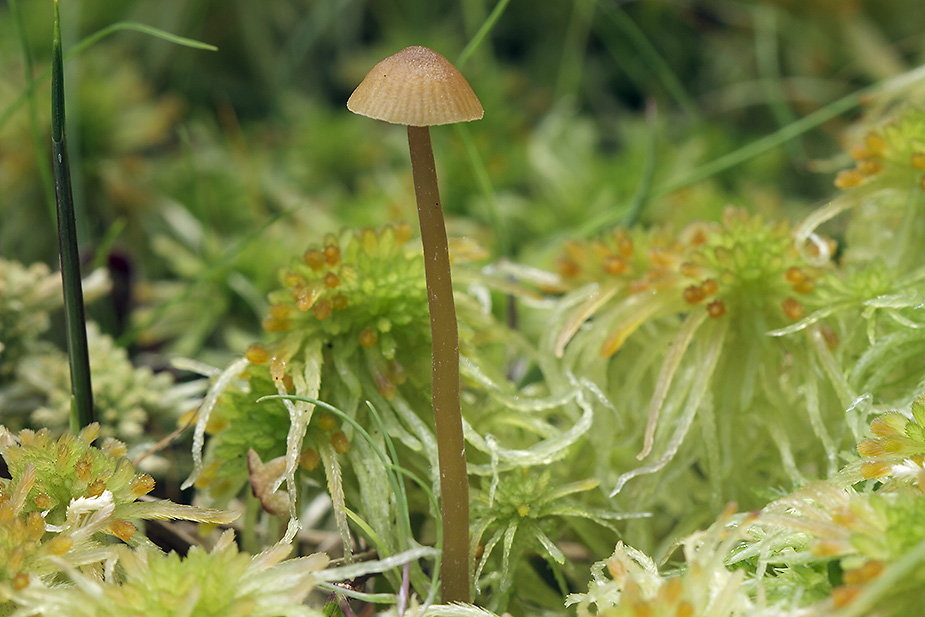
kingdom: Fungi
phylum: Basidiomycota
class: Agaricomycetes
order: Agaricales
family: Hymenogastraceae
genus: Galerina
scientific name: Galerina mairei
